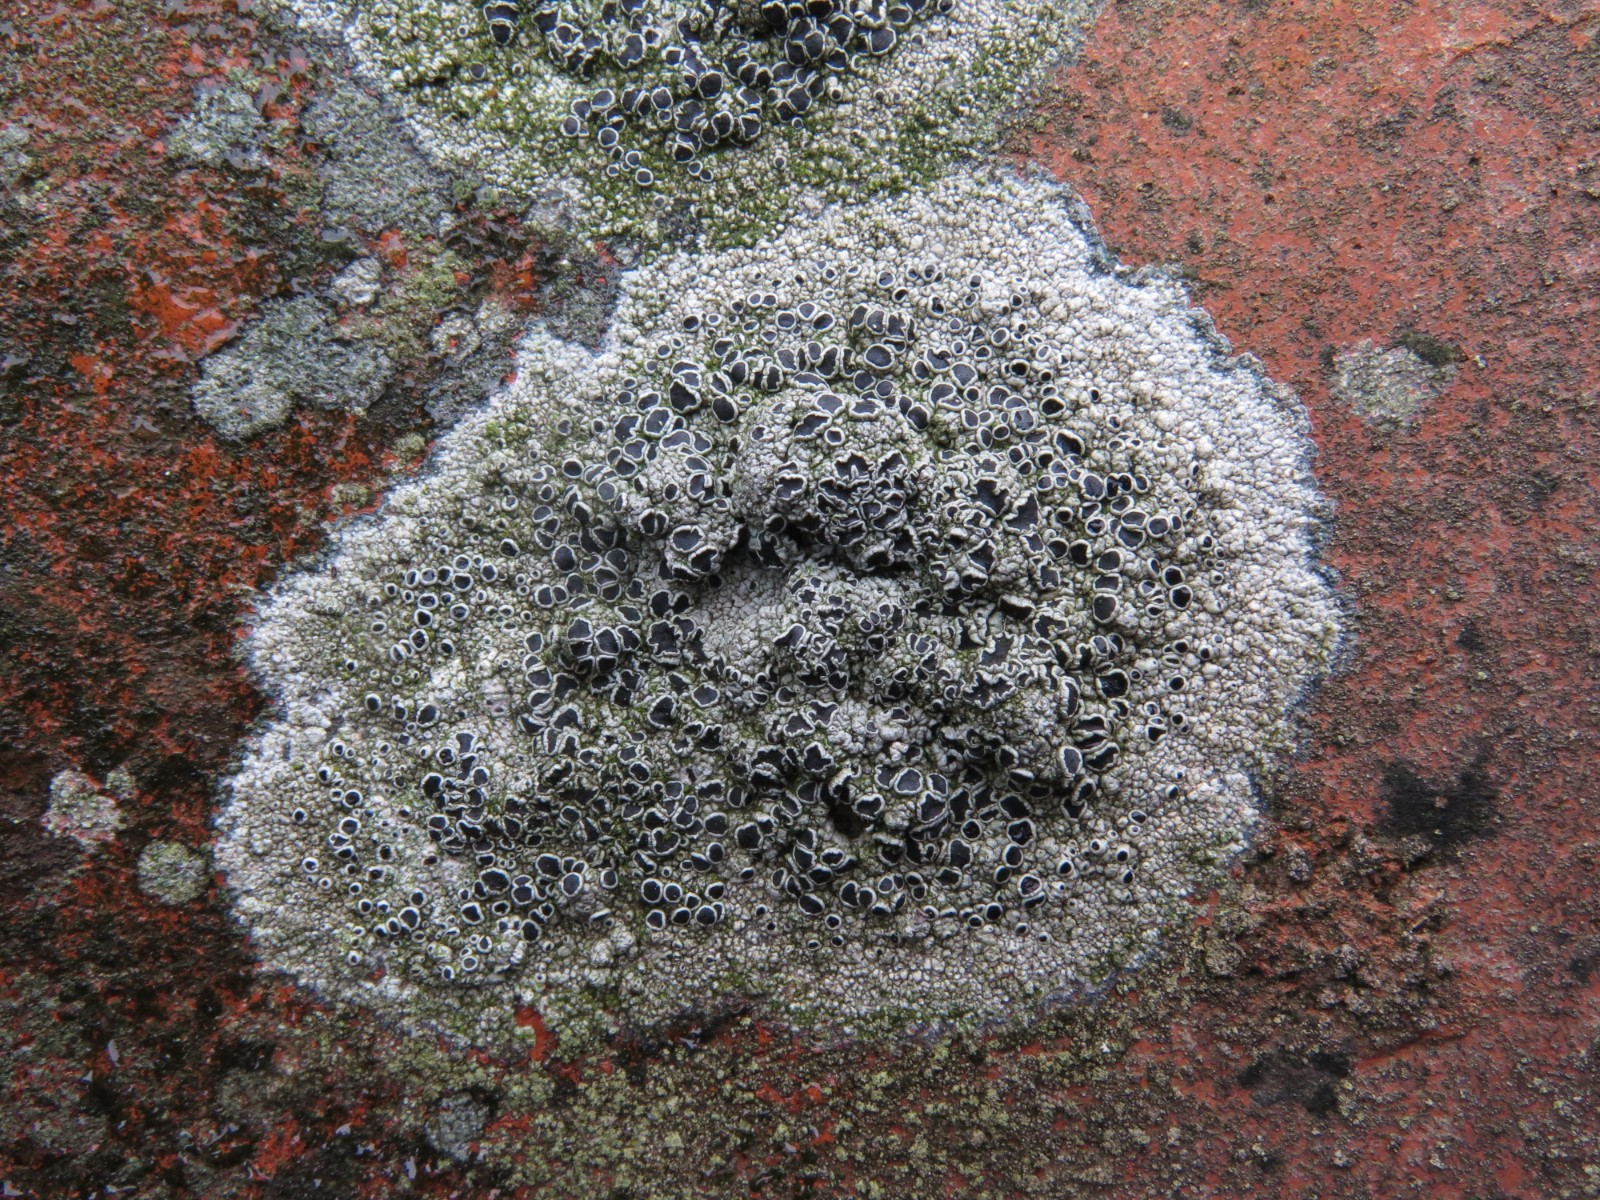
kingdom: Fungi
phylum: Ascomycota
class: Lecanoromycetes
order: Lecanorales
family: Tephromelataceae
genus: Tephromela
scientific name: Tephromela atra
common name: sortfrugtet kantskivelav
